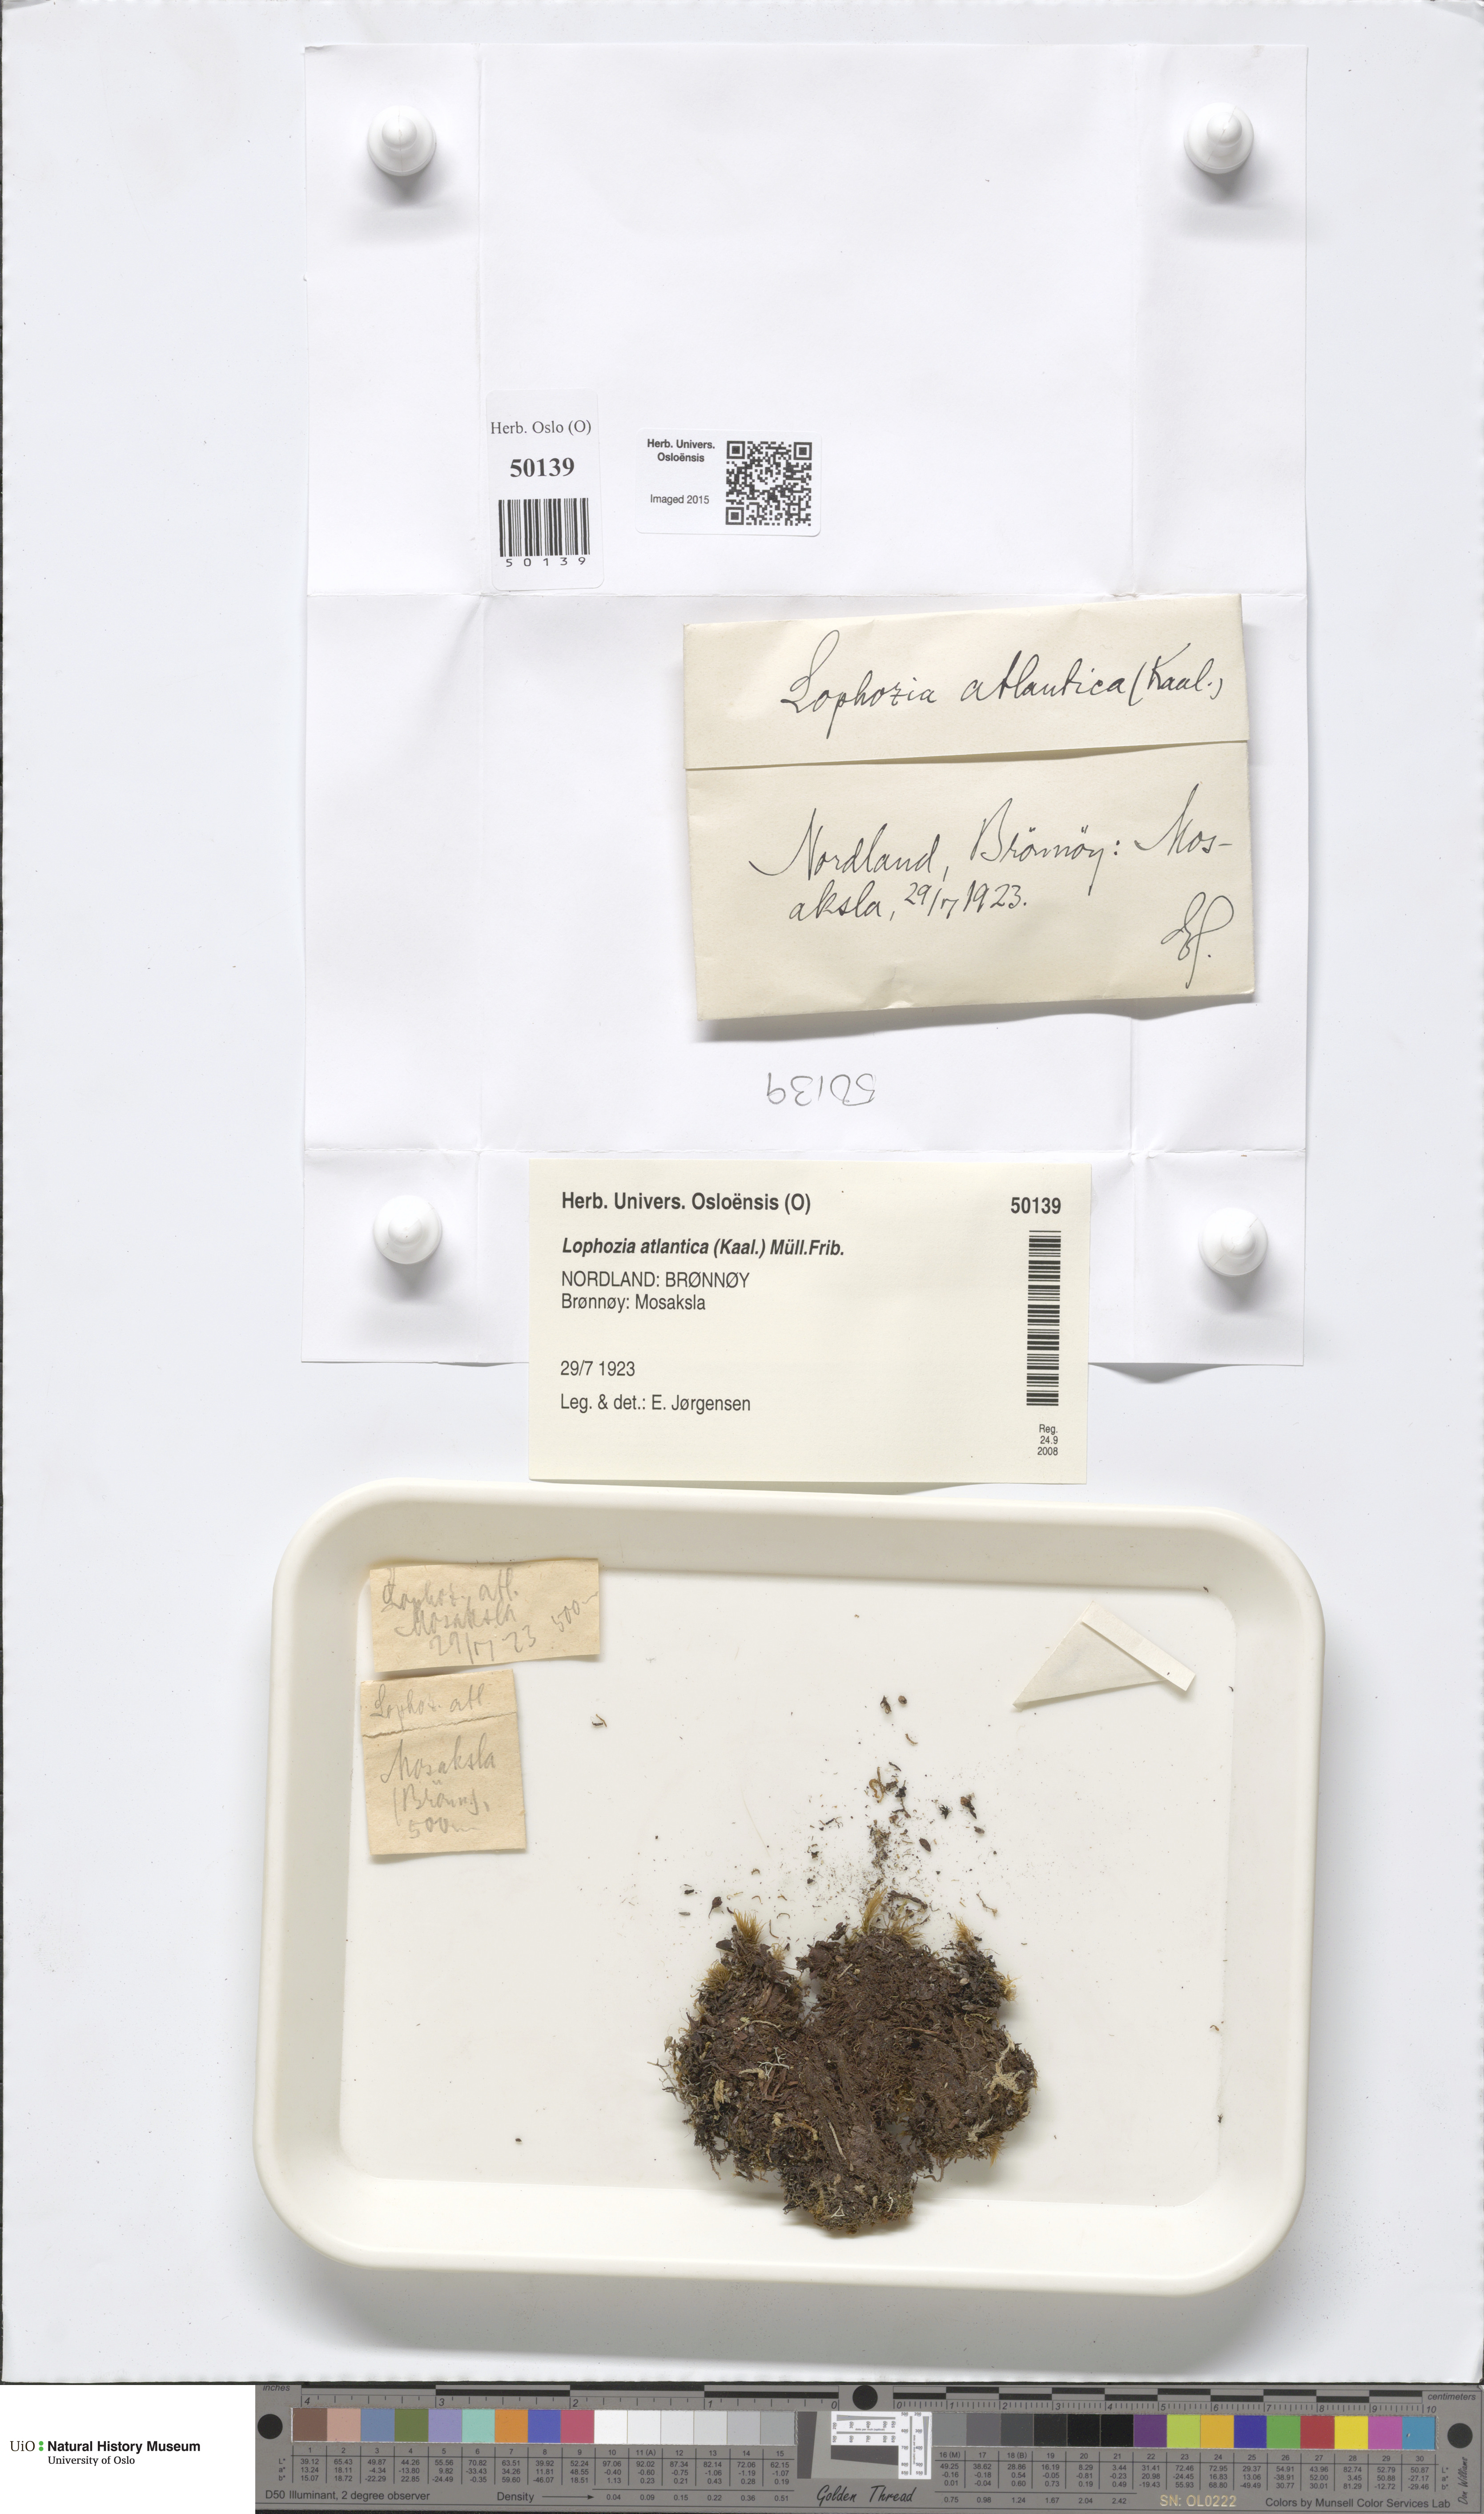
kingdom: Plantae
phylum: Marchantiophyta
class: Jungermanniopsida
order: Jungermanniales
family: Anastrophyllaceae
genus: Orthocaulis
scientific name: Orthocaulis atlanticus
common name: Atlantic pawwort
